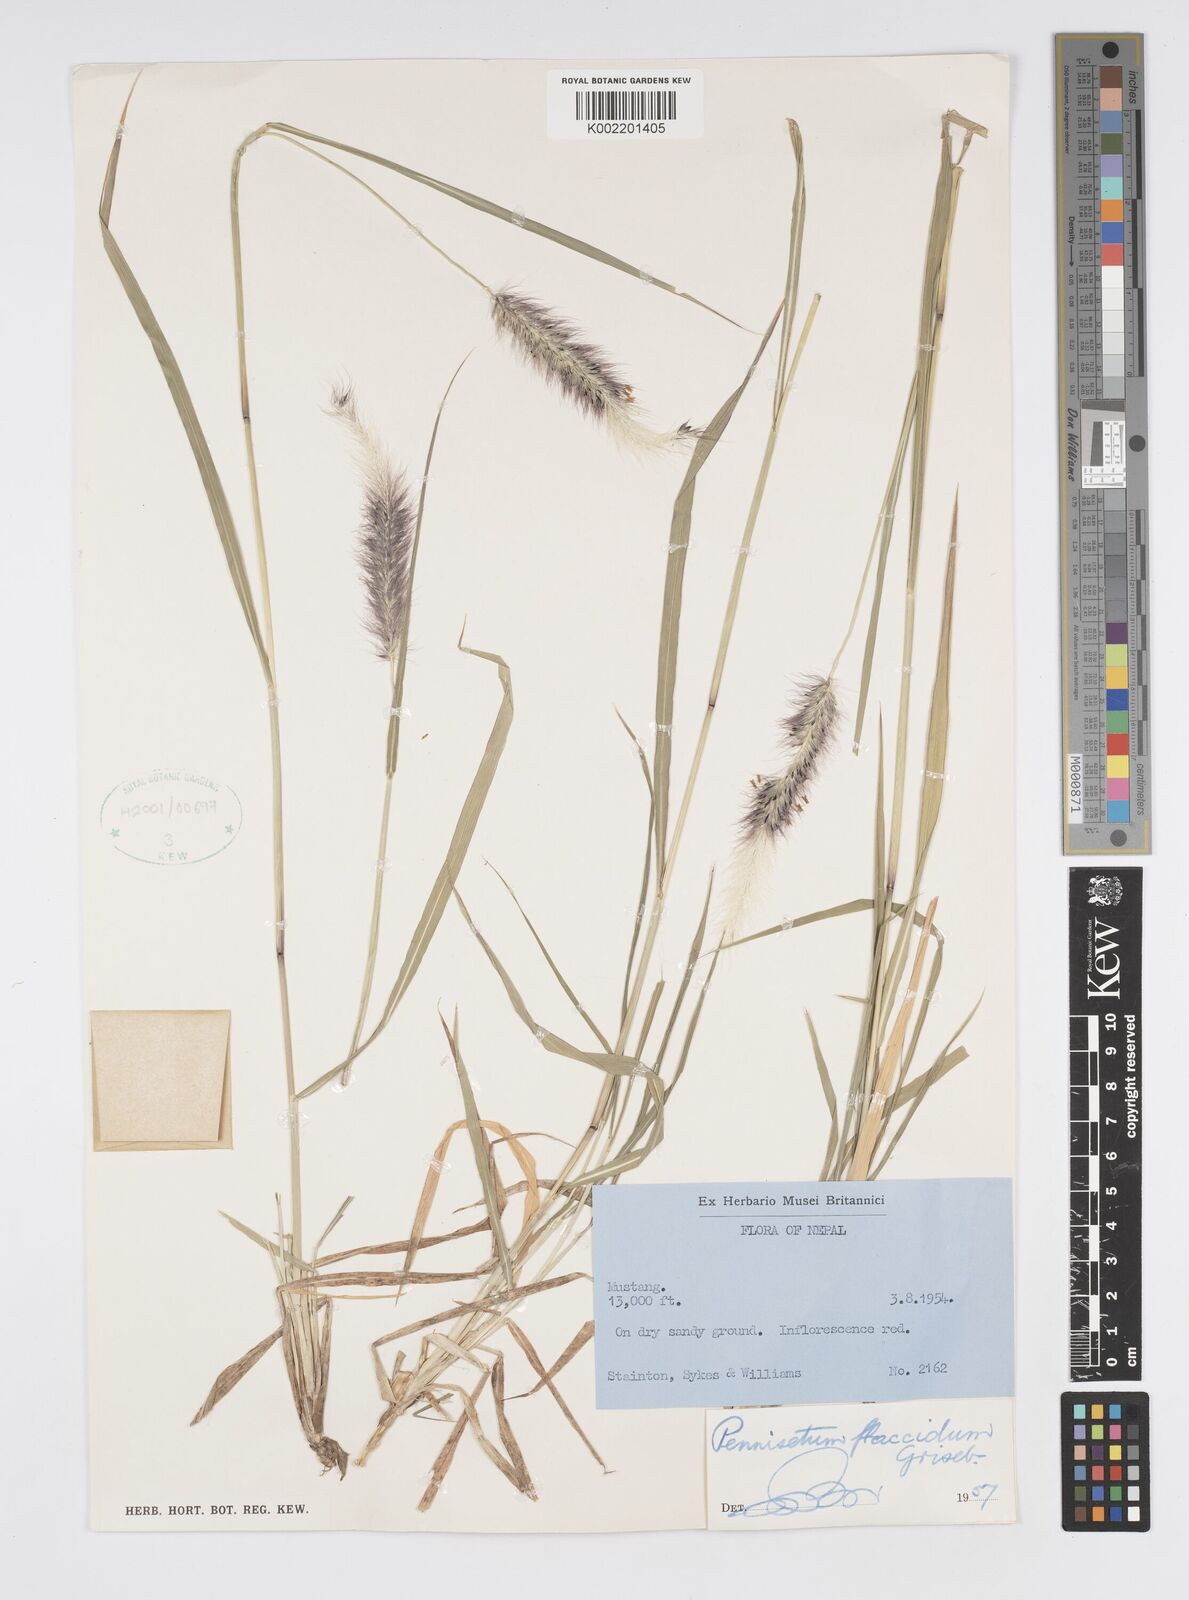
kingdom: Plantae
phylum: Tracheophyta
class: Liliopsida
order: Poales
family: Poaceae
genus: Cenchrus
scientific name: Cenchrus flaccidus
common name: Flaccid grass
